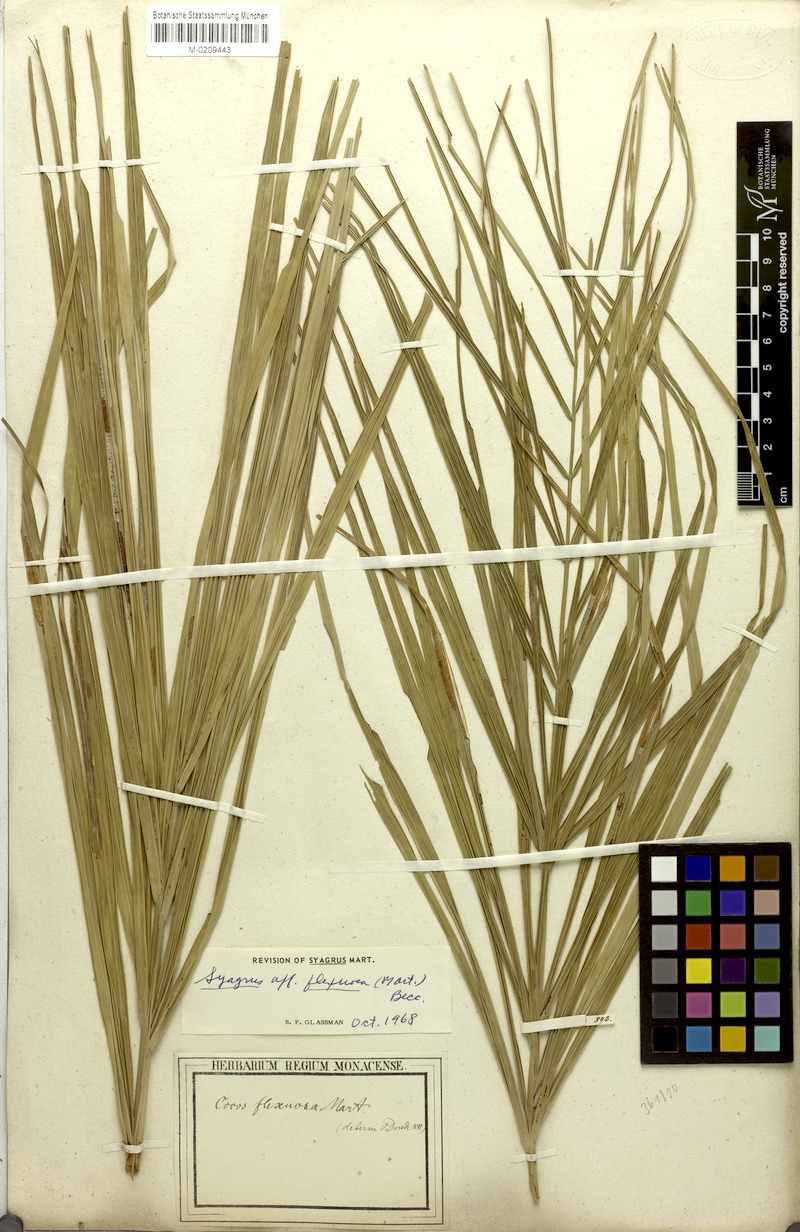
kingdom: Plantae
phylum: Tracheophyta
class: Liliopsida
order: Arecales
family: Arecaceae
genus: Syagrus
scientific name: Syagrus flexuosa
